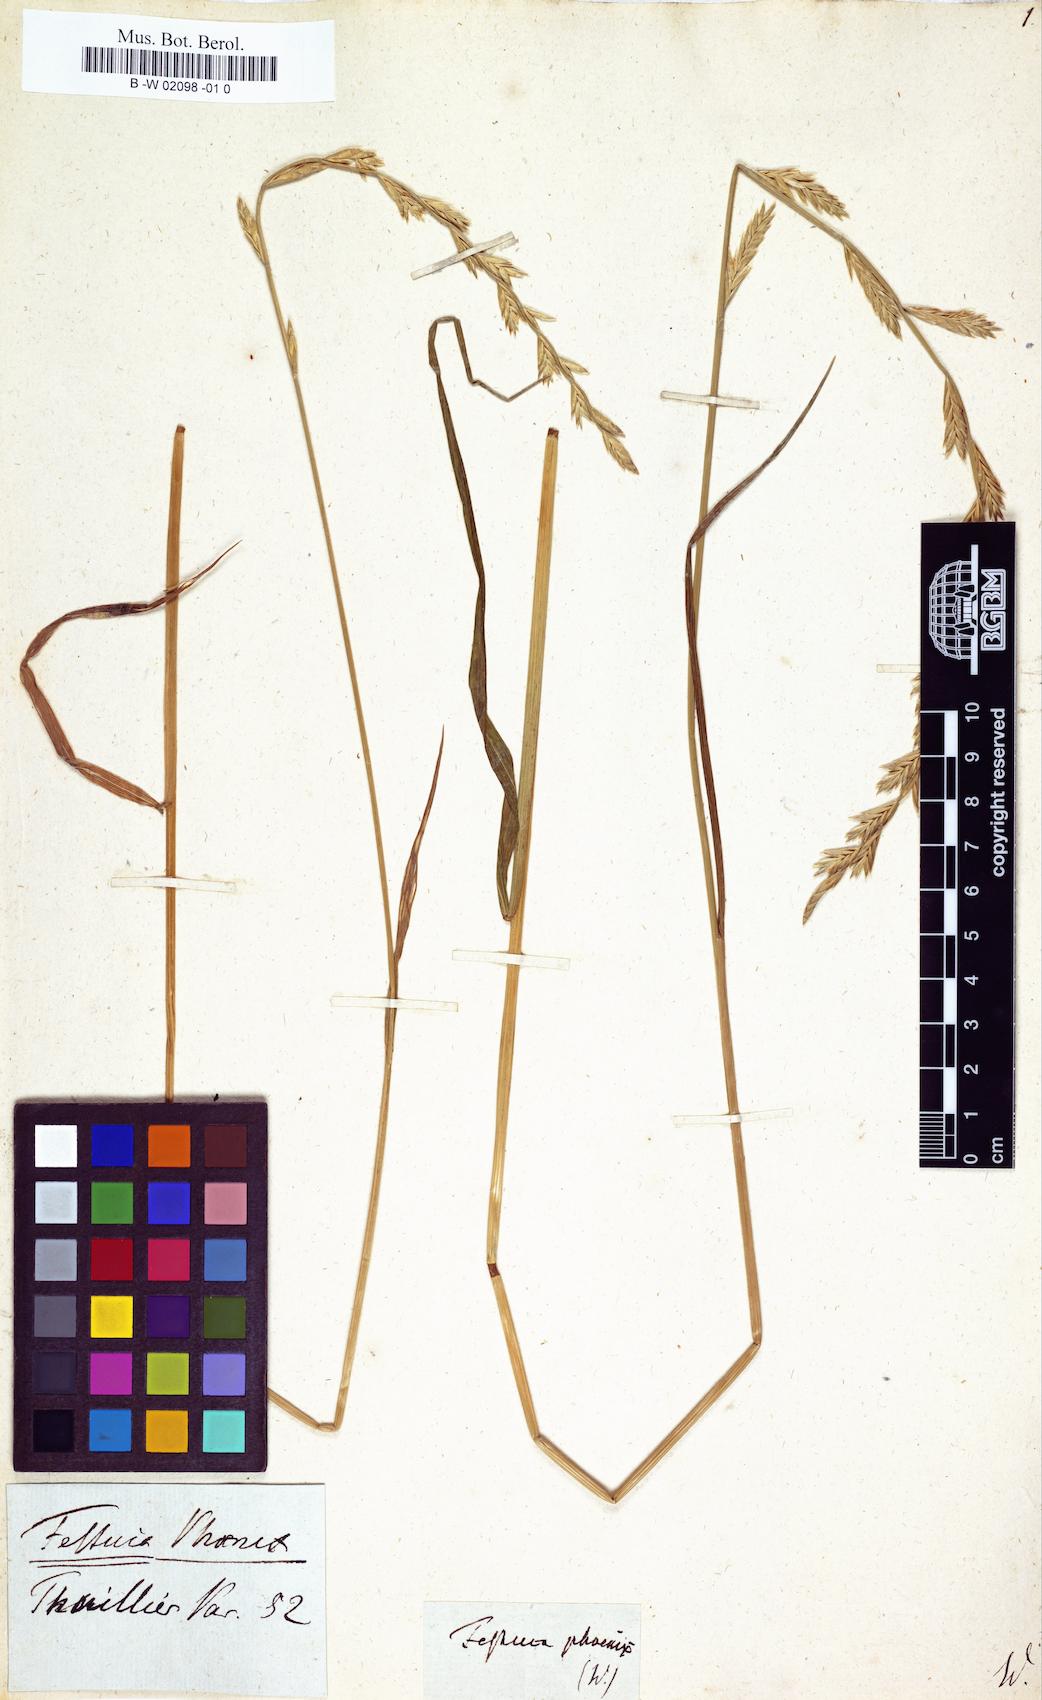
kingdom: Plantae
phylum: Tracheophyta
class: Liliopsida
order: Poales
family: Poaceae
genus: Lolium
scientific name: Lolium arundinaceum
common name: Reed fescue
